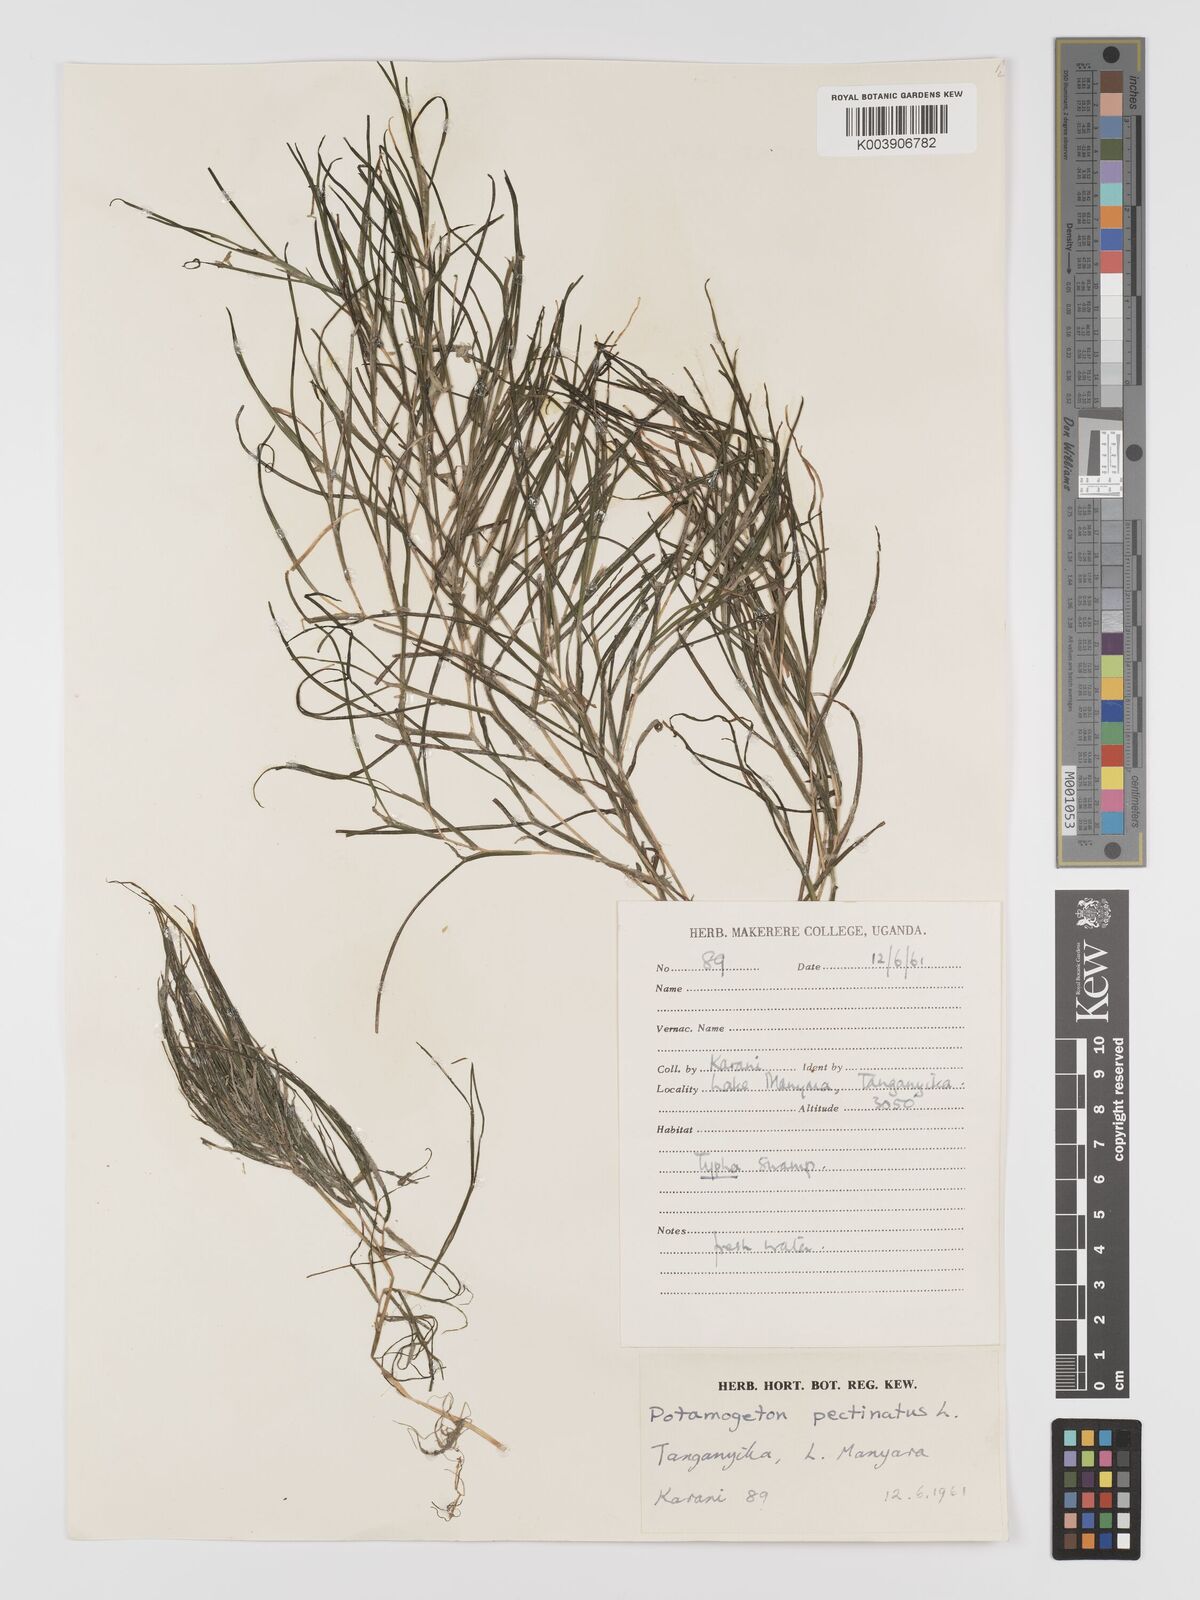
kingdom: Plantae
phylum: Tracheophyta
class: Liliopsida
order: Alismatales
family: Potamogetonaceae
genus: Stuckenia
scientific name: Stuckenia pectinata
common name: Sago pondweed
